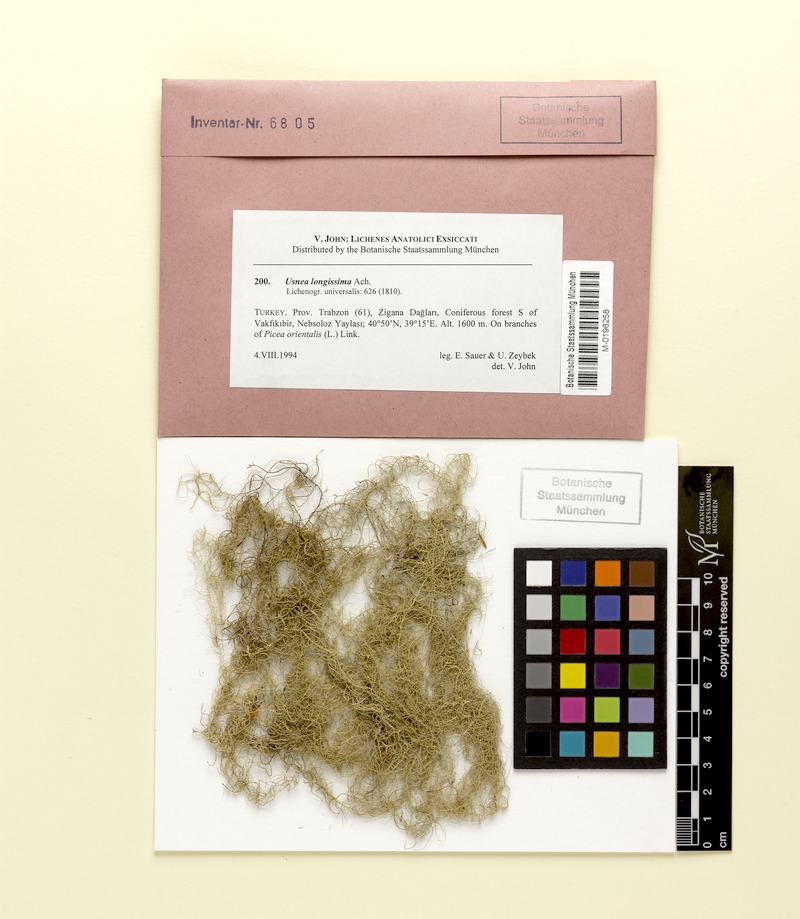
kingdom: Fungi
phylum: Ascomycota
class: Lecanoromycetes
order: Lecanorales
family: Parmeliaceae
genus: Dolichousnea
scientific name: Dolichousnea longissima
